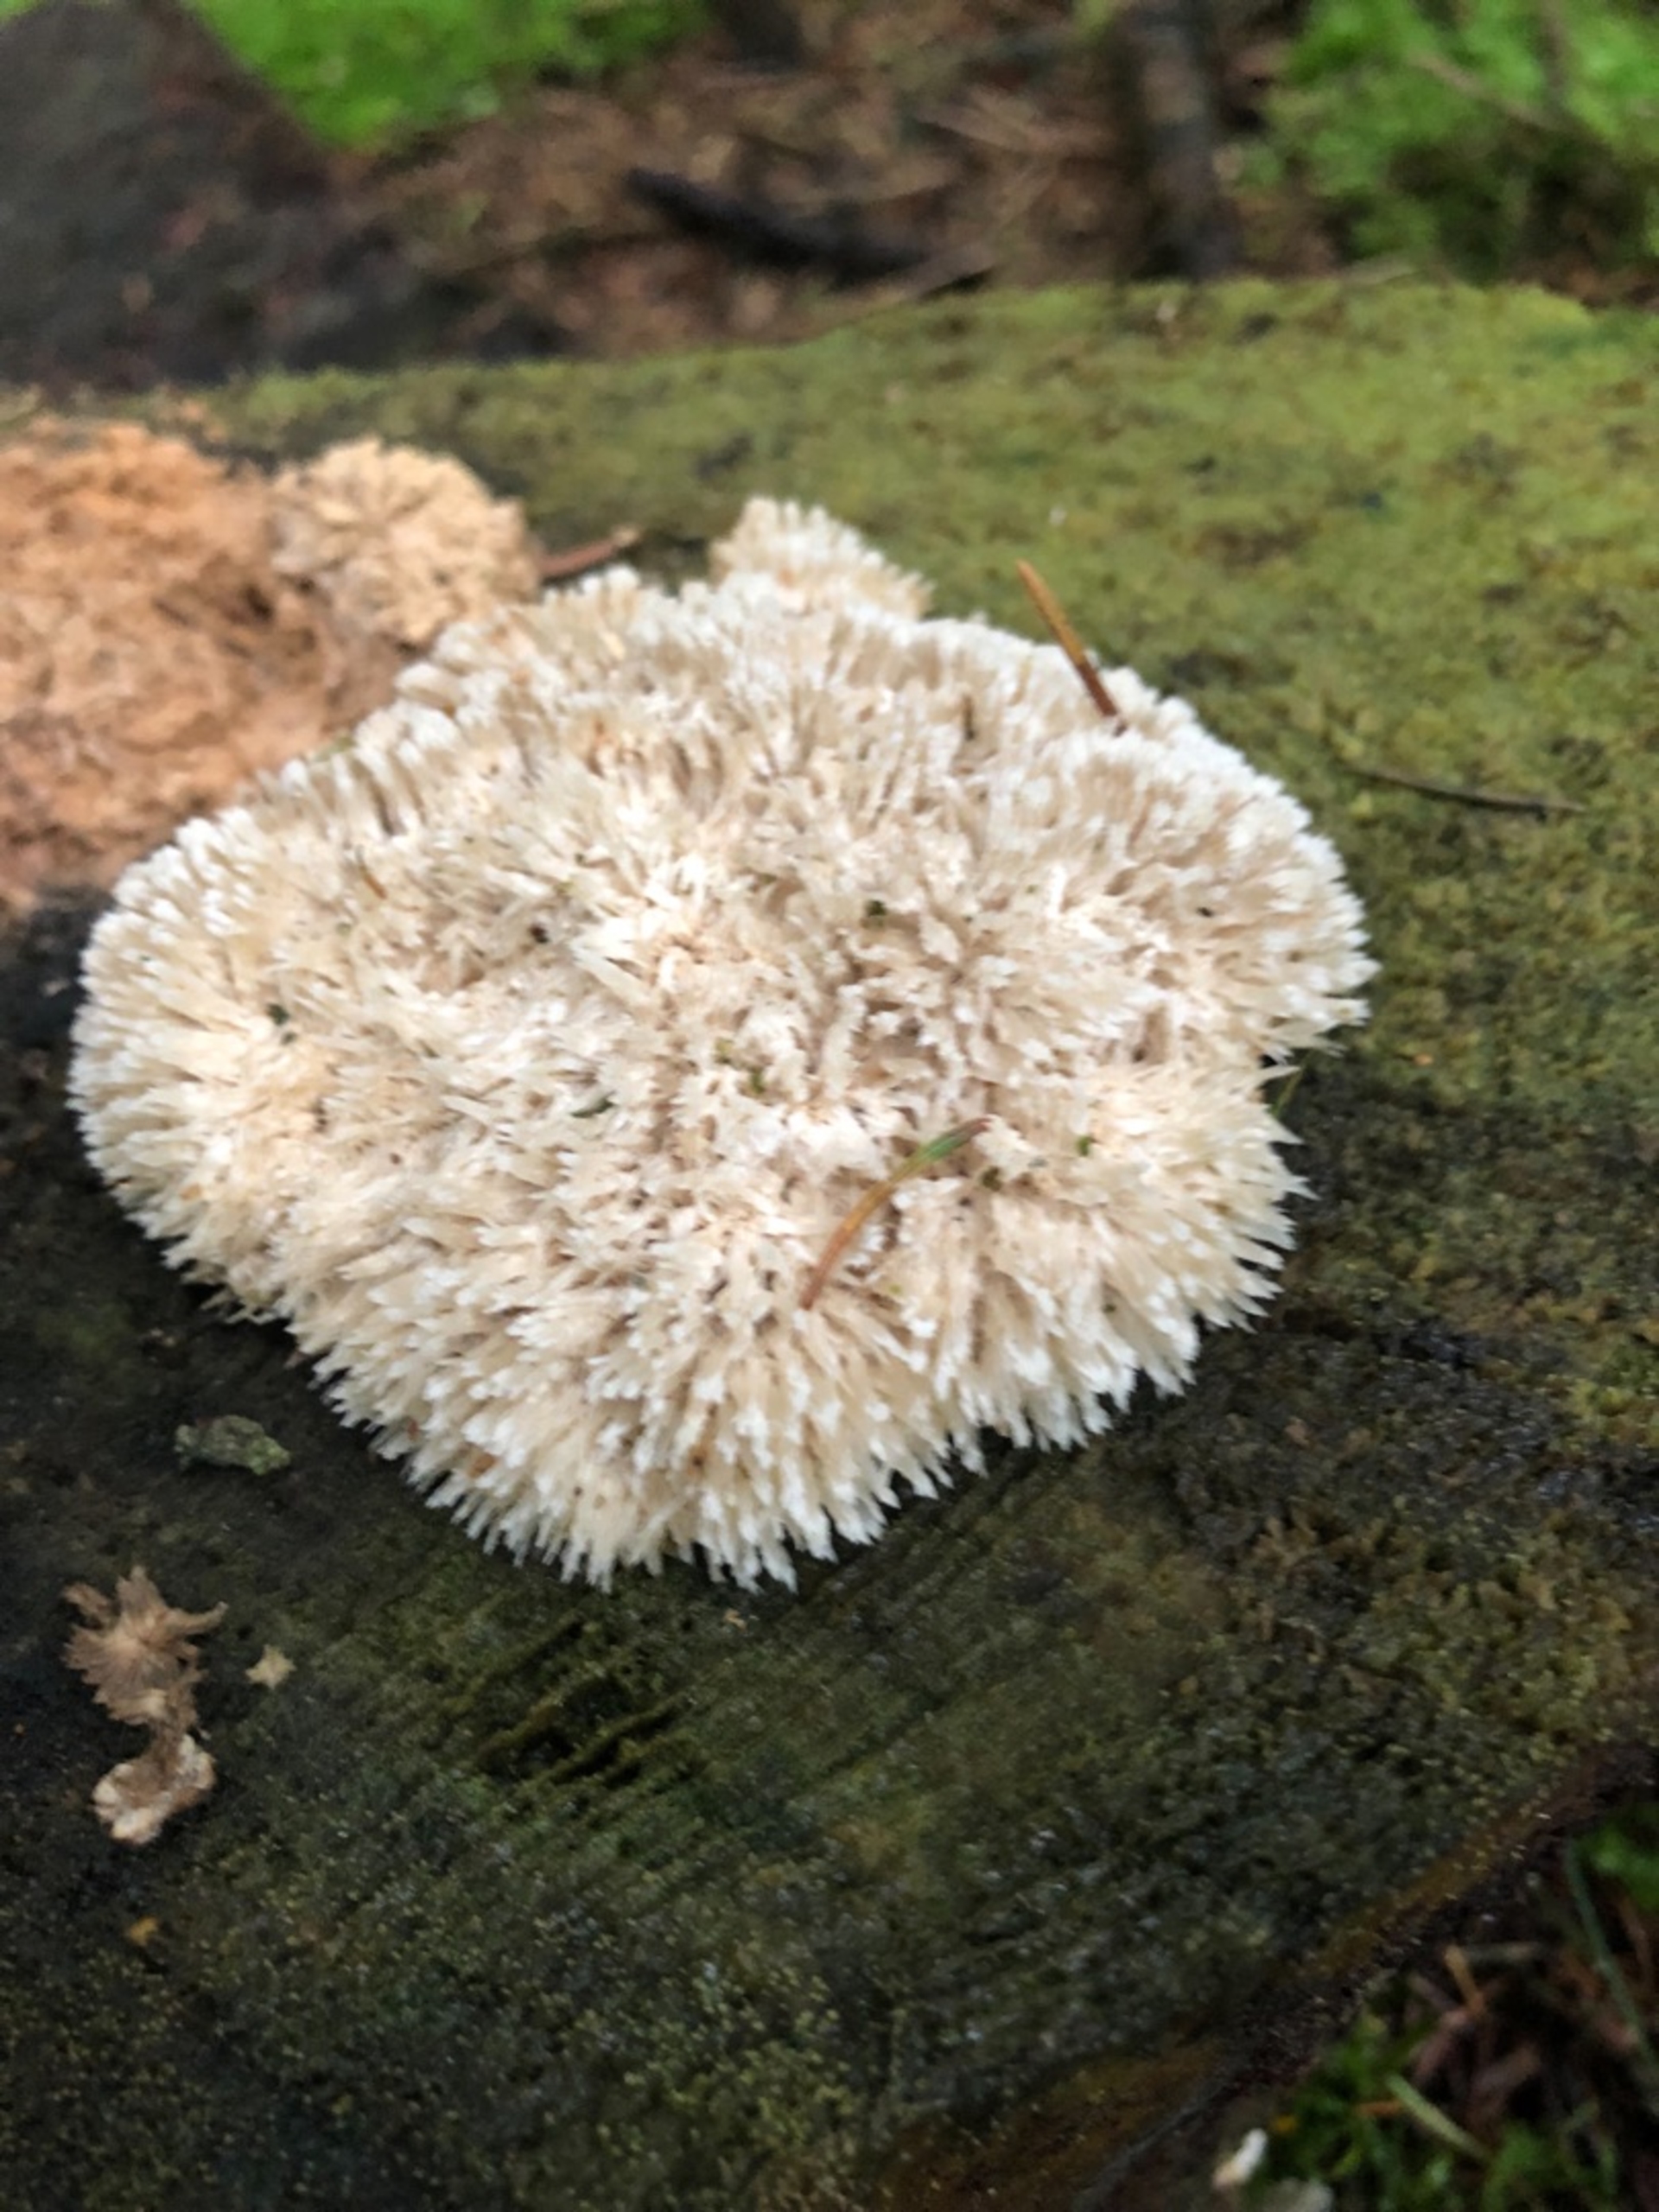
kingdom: Fungi
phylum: Basidiomycota
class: Agaricomycetes
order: Polyporales
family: Dacryobolaceae
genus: Postia
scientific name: Postia ptychogaster
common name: Støvende kødporesvamp
